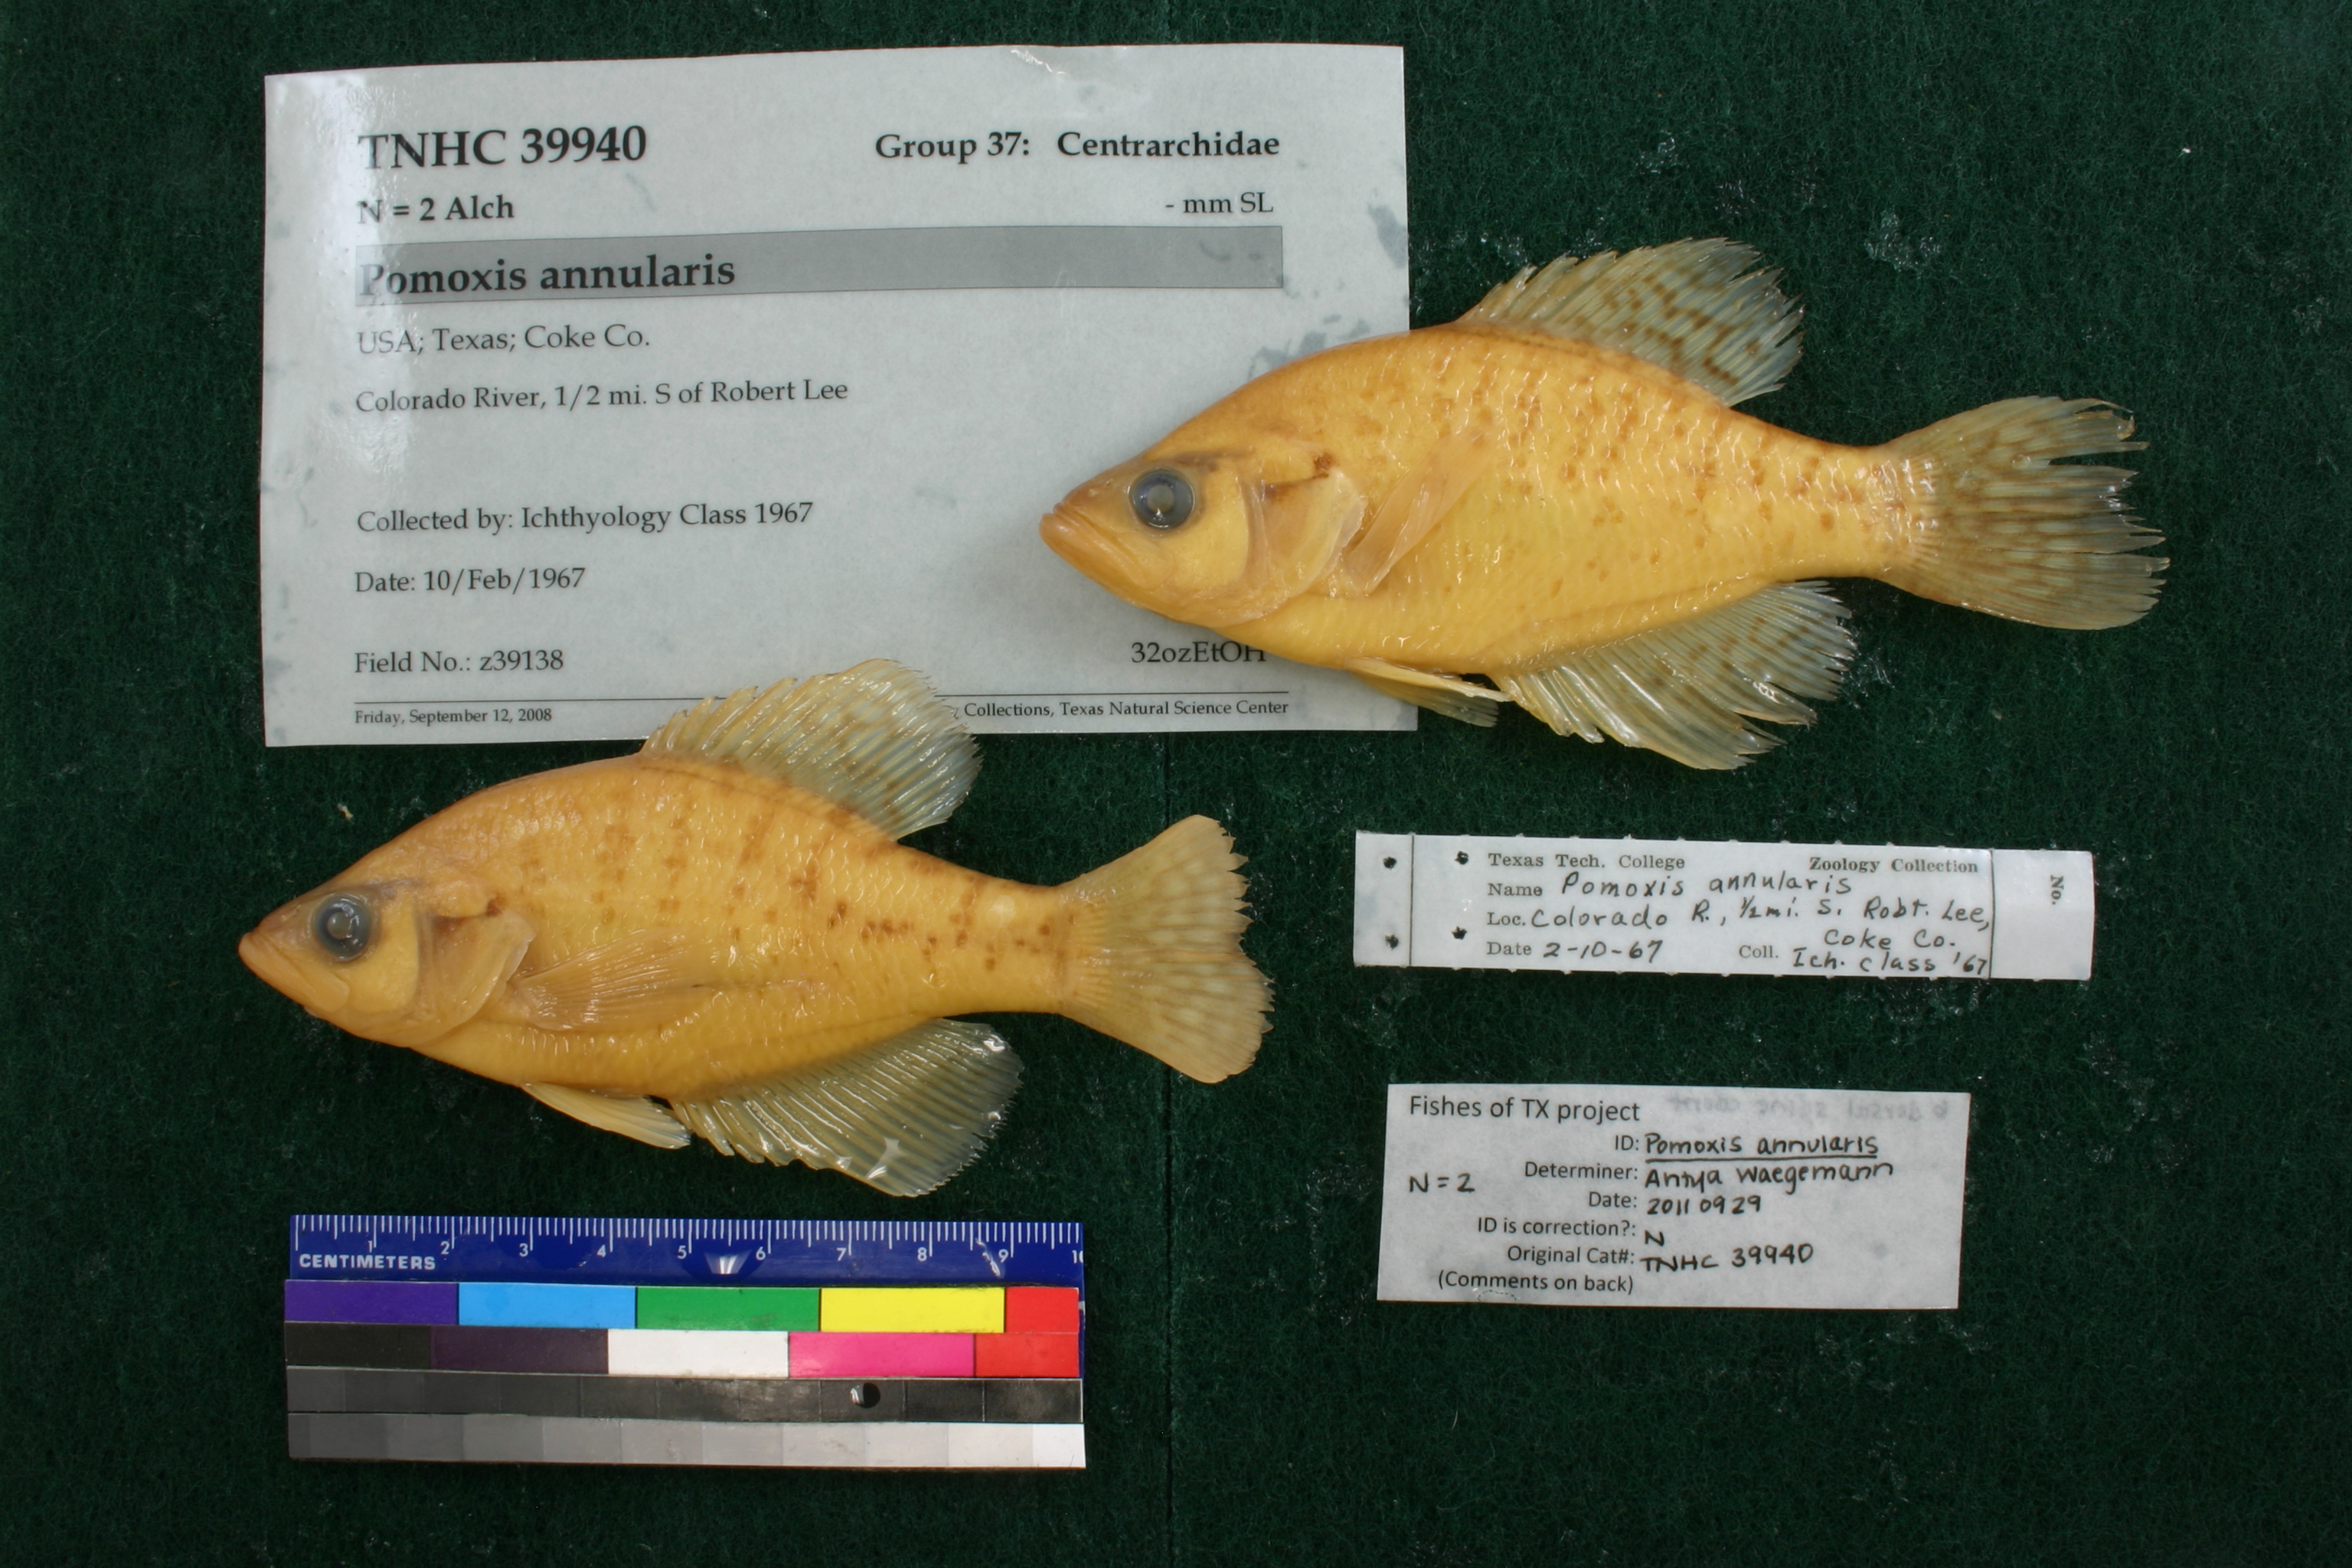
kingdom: Animalia
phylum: Chordata
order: Perciformes
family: Centrarchidae
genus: Pomoxis
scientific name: Pomoxis annularis
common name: White crappie
